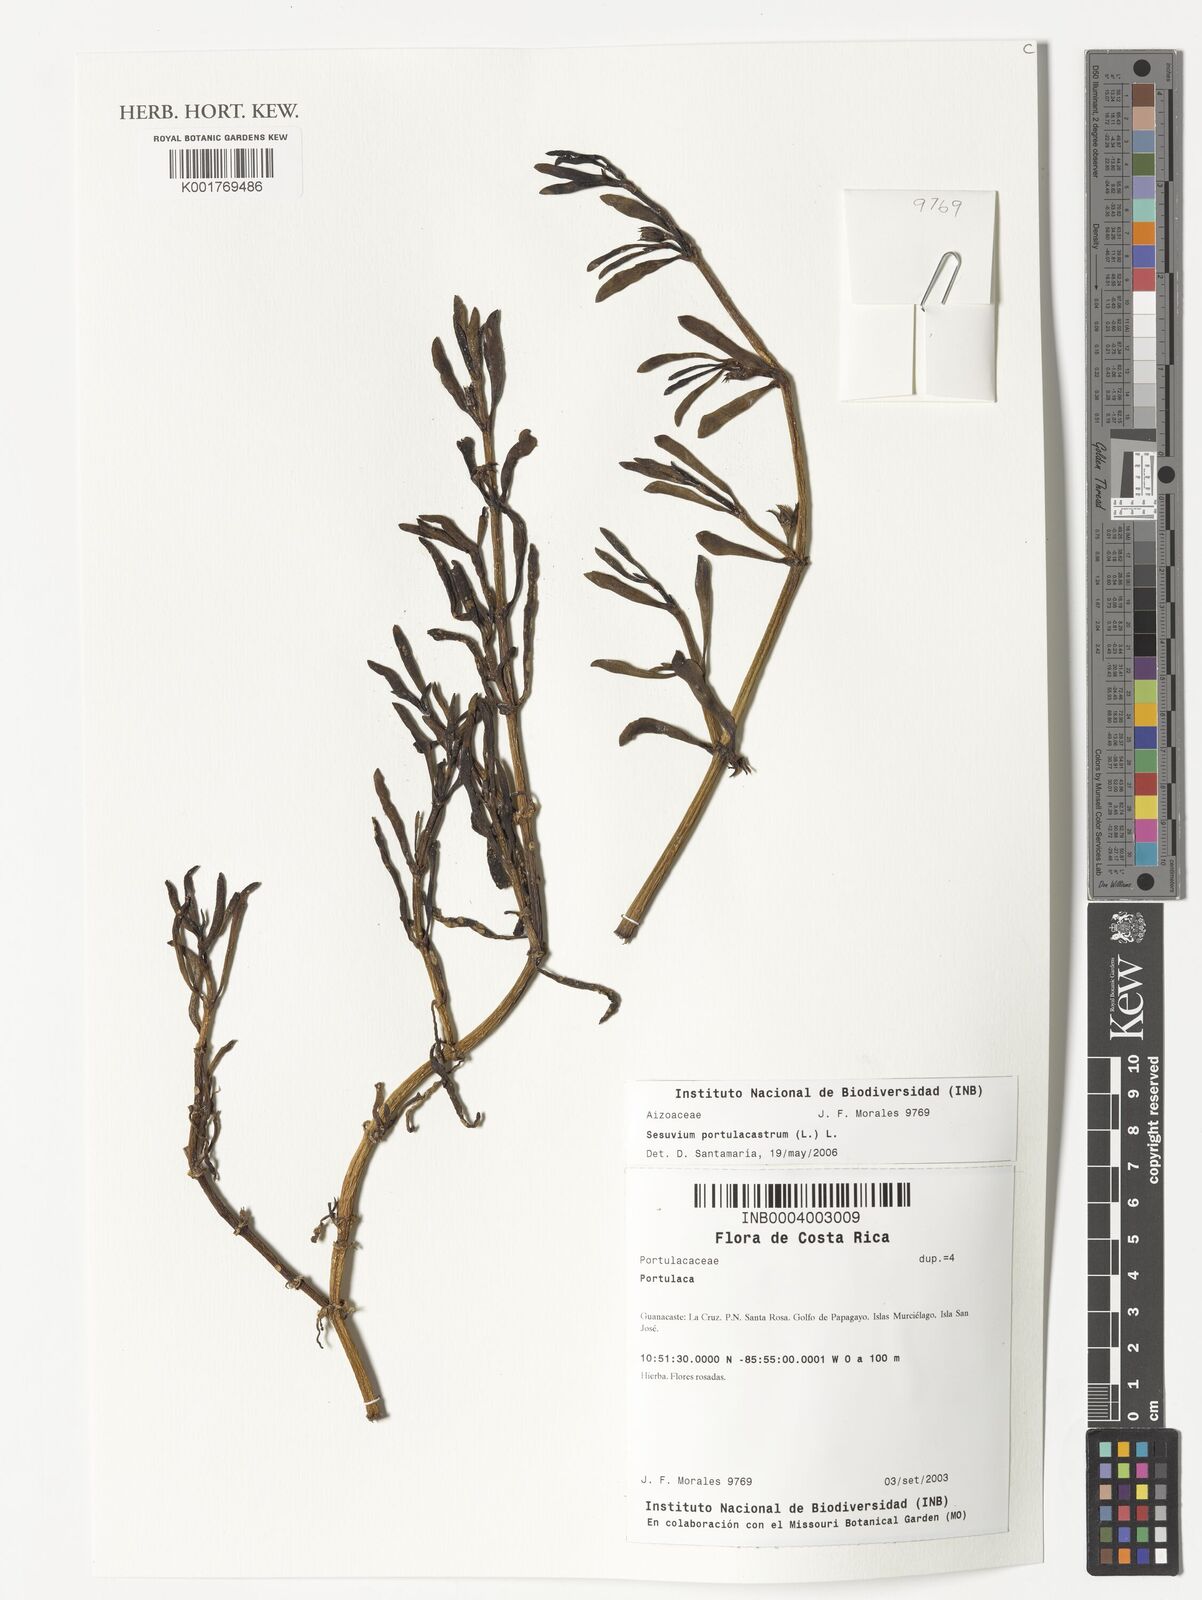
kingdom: Plantae
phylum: Tracheophyta
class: Magnoliopsida
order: Caryophyllales
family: Aizoaceae
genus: Sesuvium
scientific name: Sesuvium portulacastrum
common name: Sea-purslane
